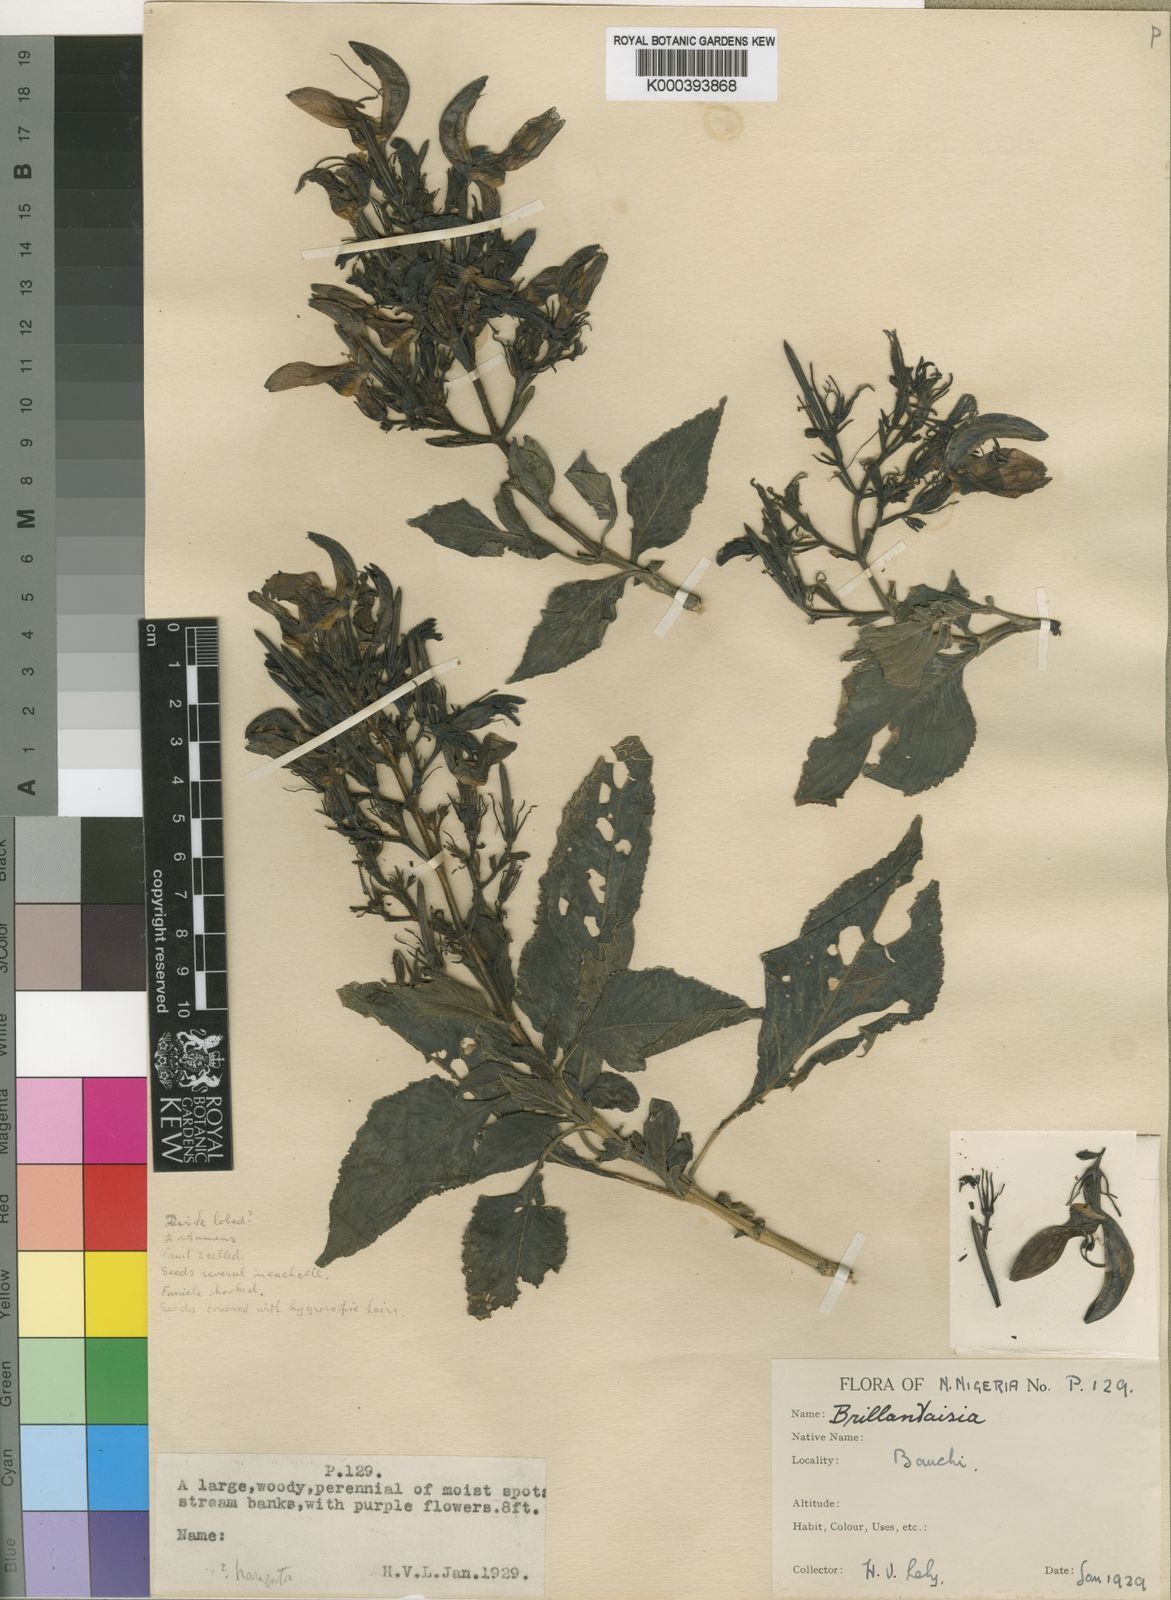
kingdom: Plantae
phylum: Tracheophyta
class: Magnoliopsida
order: Lamiales
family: Acanthaceae
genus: Brillantaisia
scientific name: Brillantaisia owariensis
